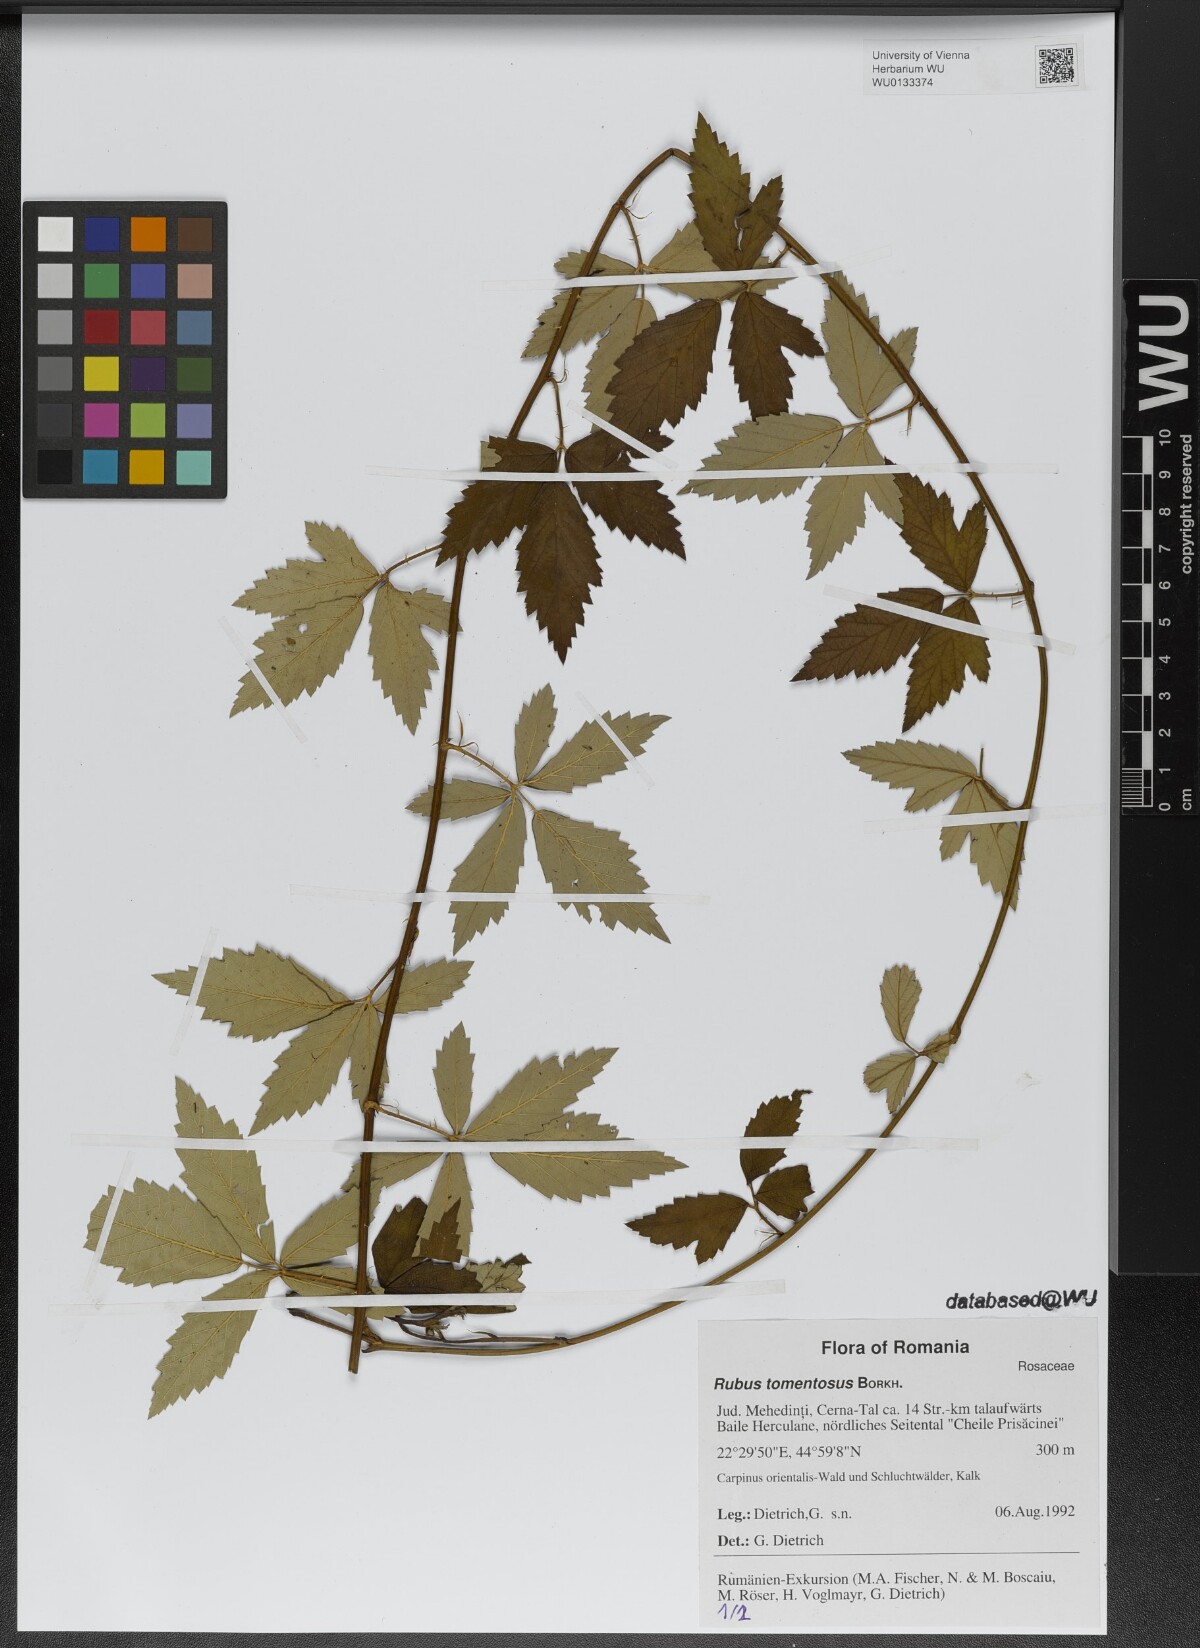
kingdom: Plantae
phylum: Tracheophyta
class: Magnoliopsida
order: Rosales
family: Rosaceae
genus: Rubus
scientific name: Rubus occidentalis
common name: Black raspberry
